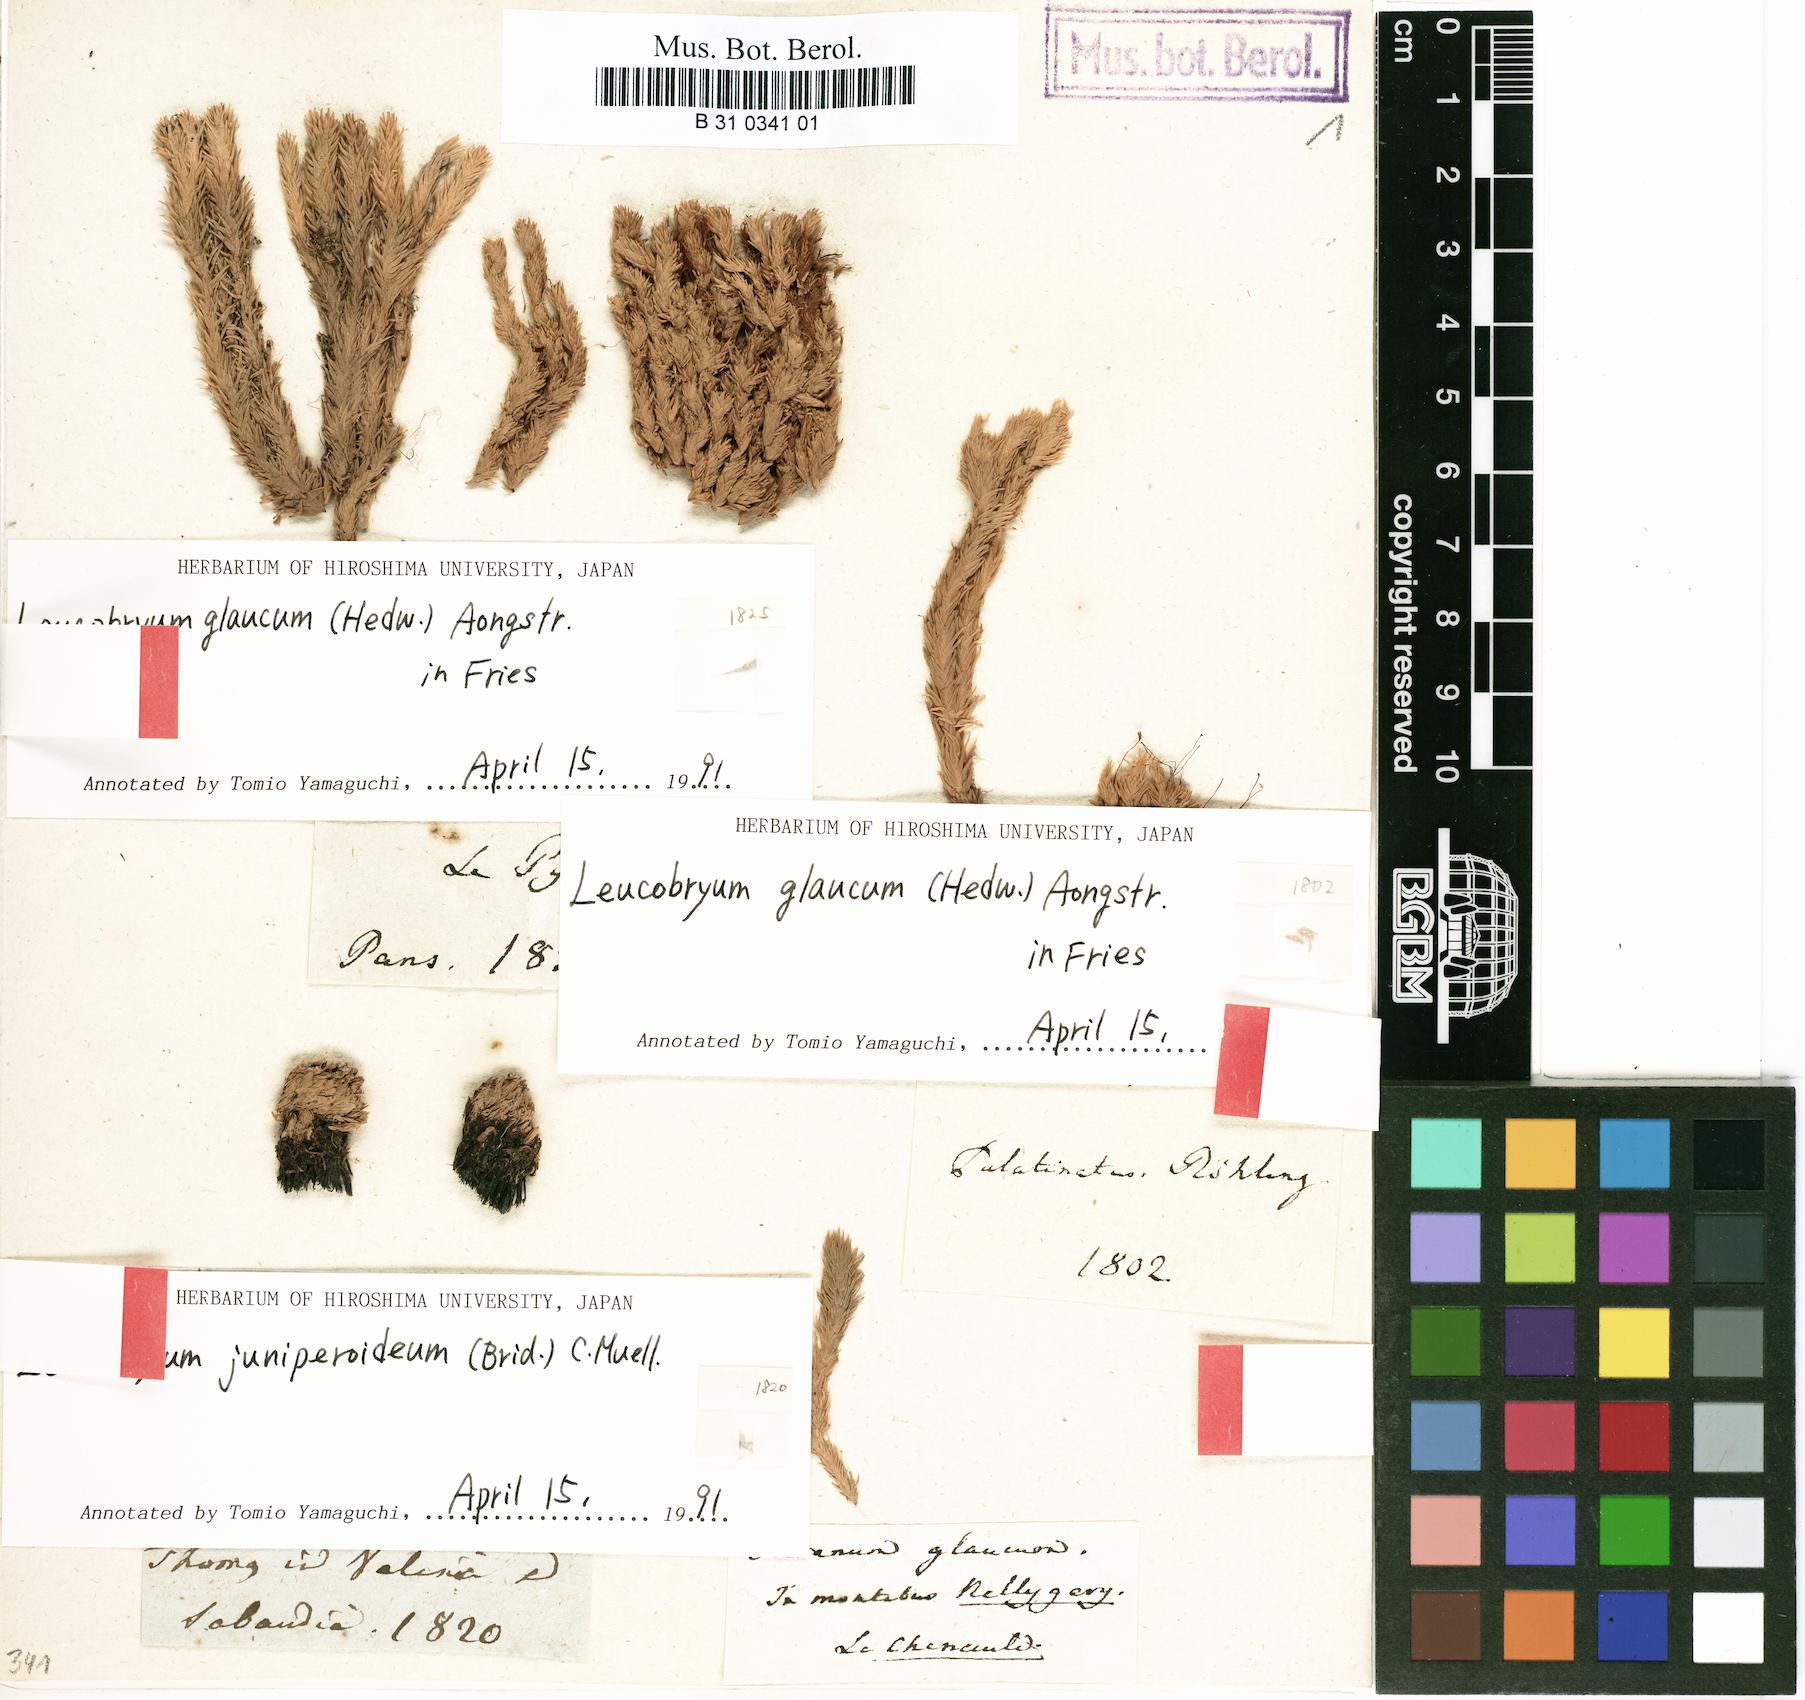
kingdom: Plantae
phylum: Bryophyta
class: Bryopsida
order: Dicranales
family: Leucobryaceae
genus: Leucobryum
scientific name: Leucobryum glaucum
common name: Large white-moss
